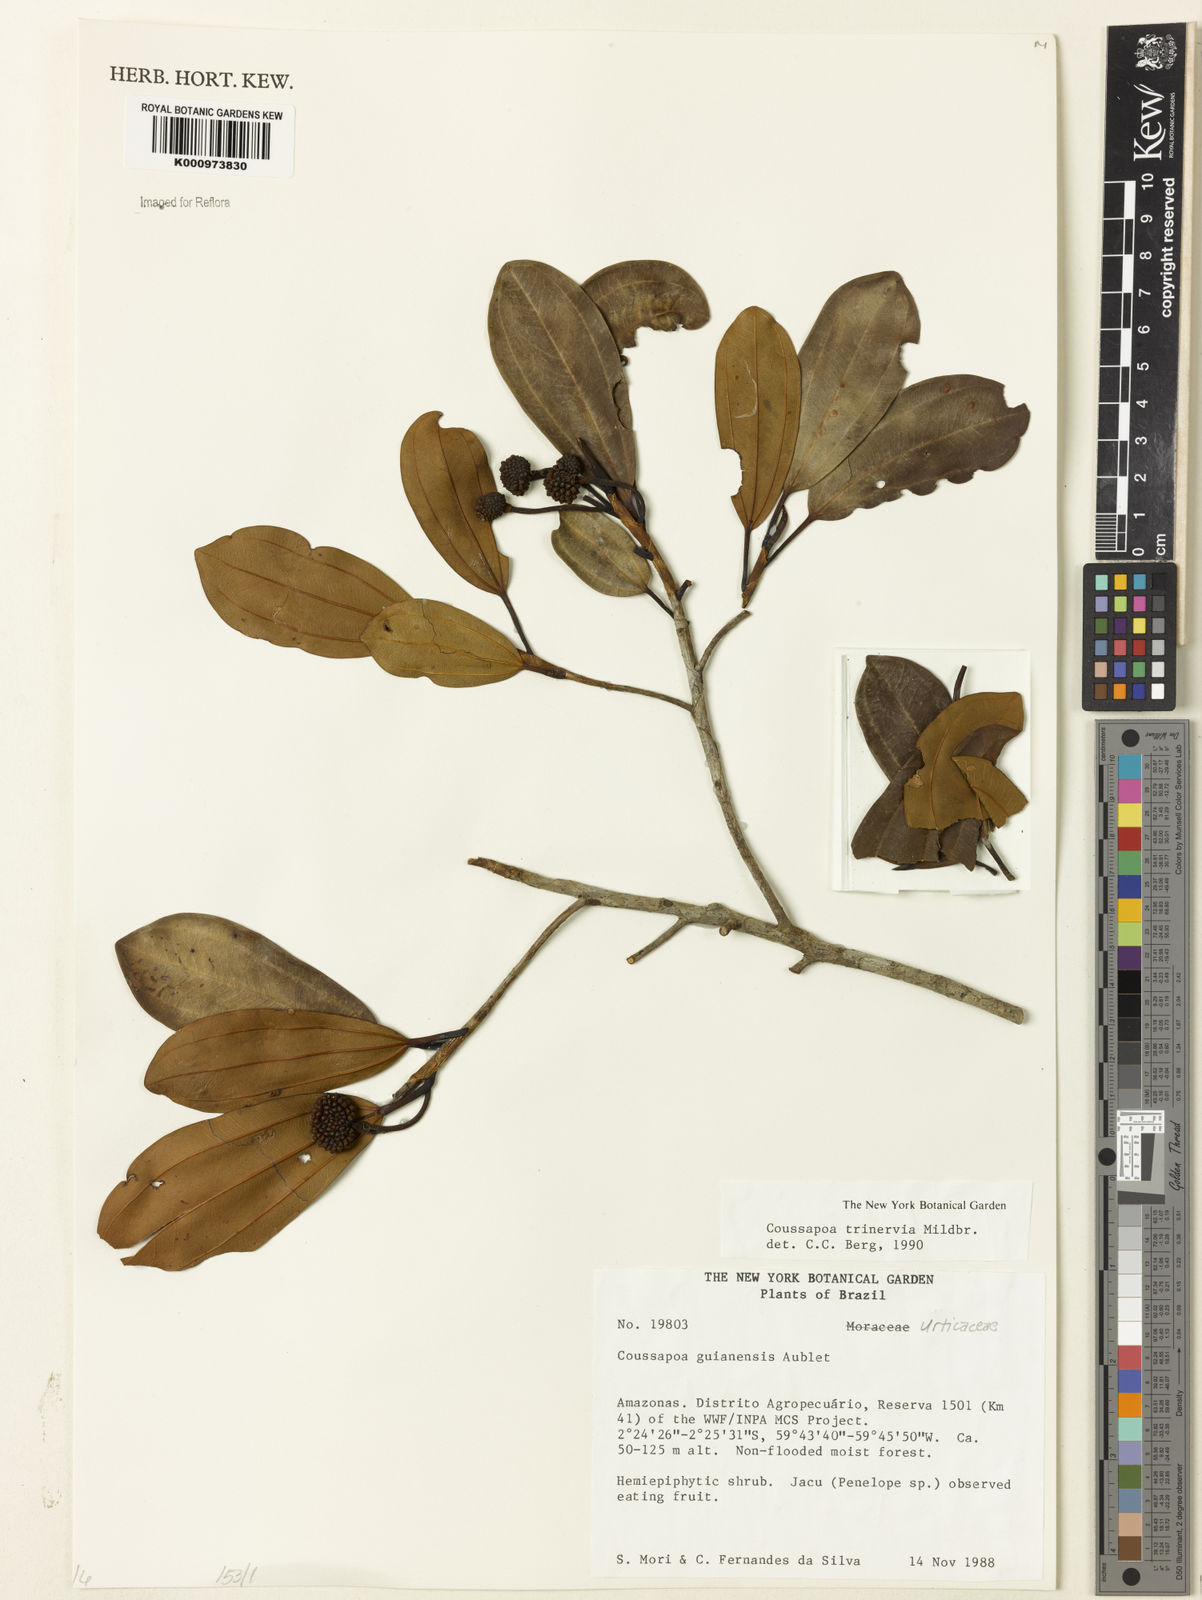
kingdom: Plantae
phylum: Tracheophyta
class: Magnoliopsida
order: Rosales
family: Urticaceae
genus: Coussapoa
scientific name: Coussapoa trinervia
